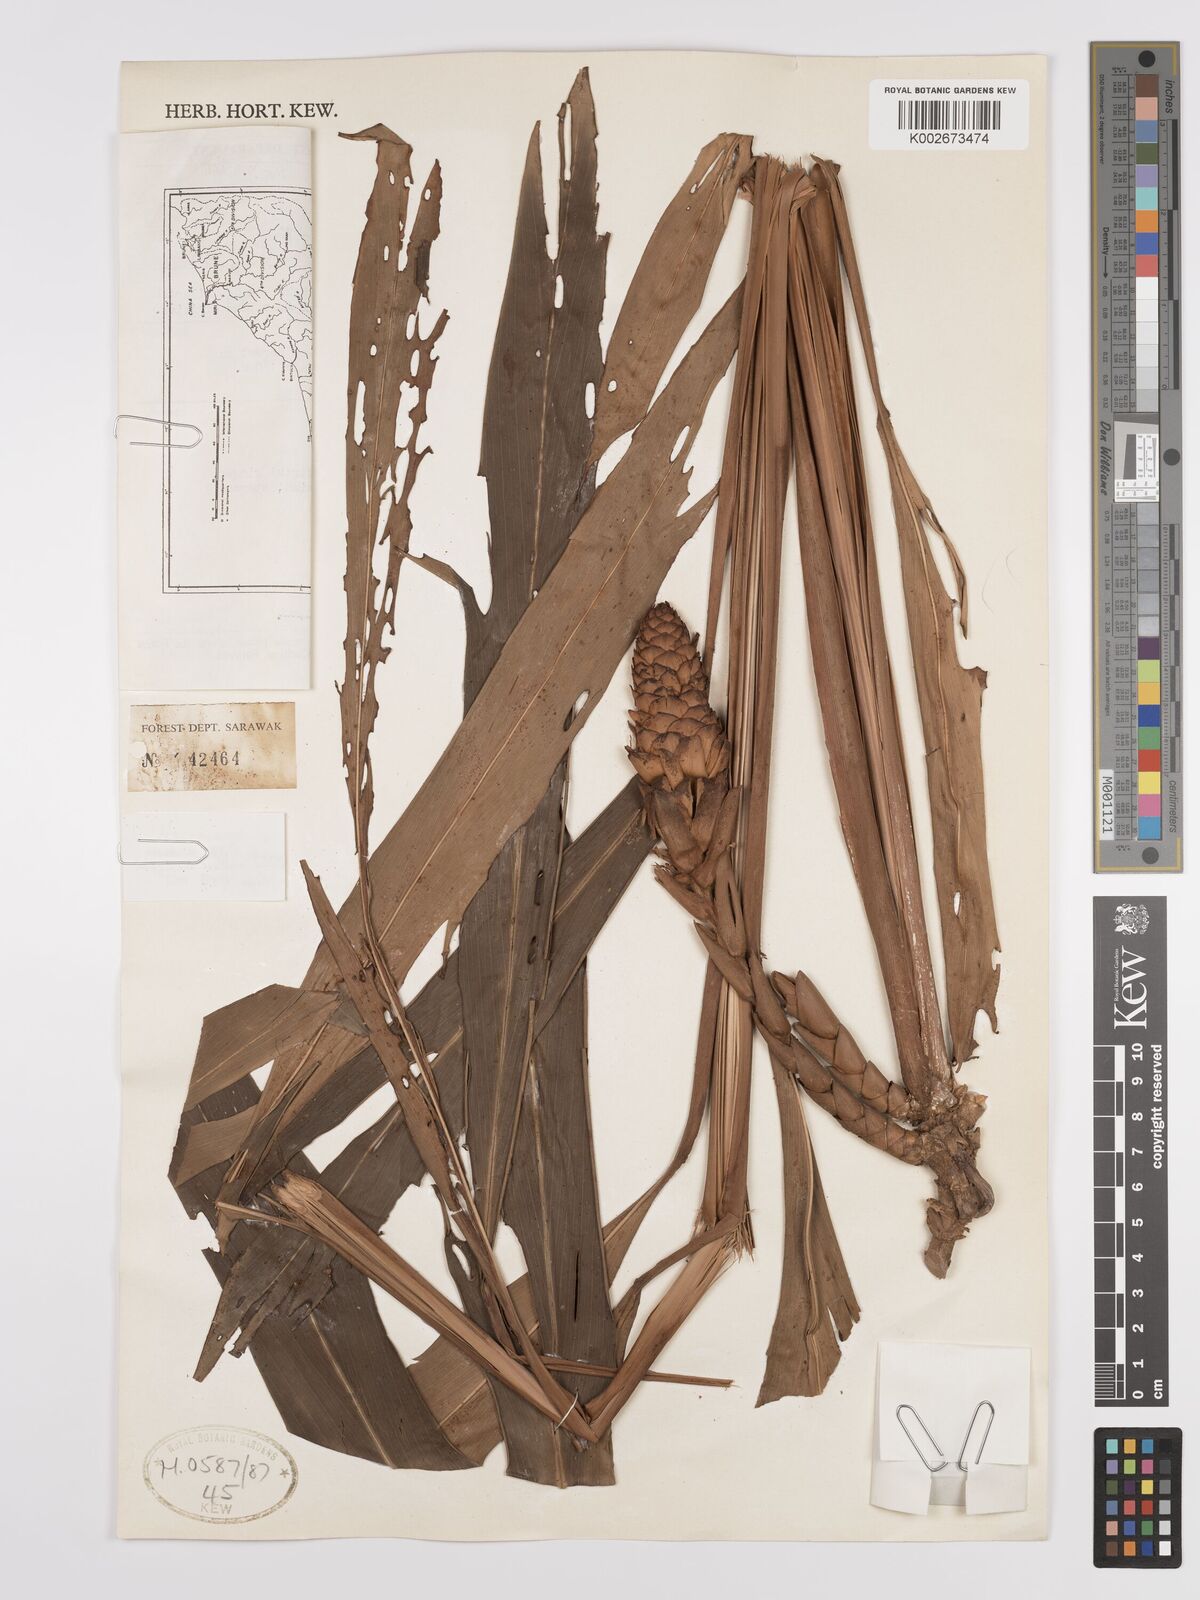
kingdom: Plantae
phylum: Tracheophyta
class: Liliopsida
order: Zingiberales
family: Zingiberaceae
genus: Etlingera
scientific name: Etlingera polycarpa
